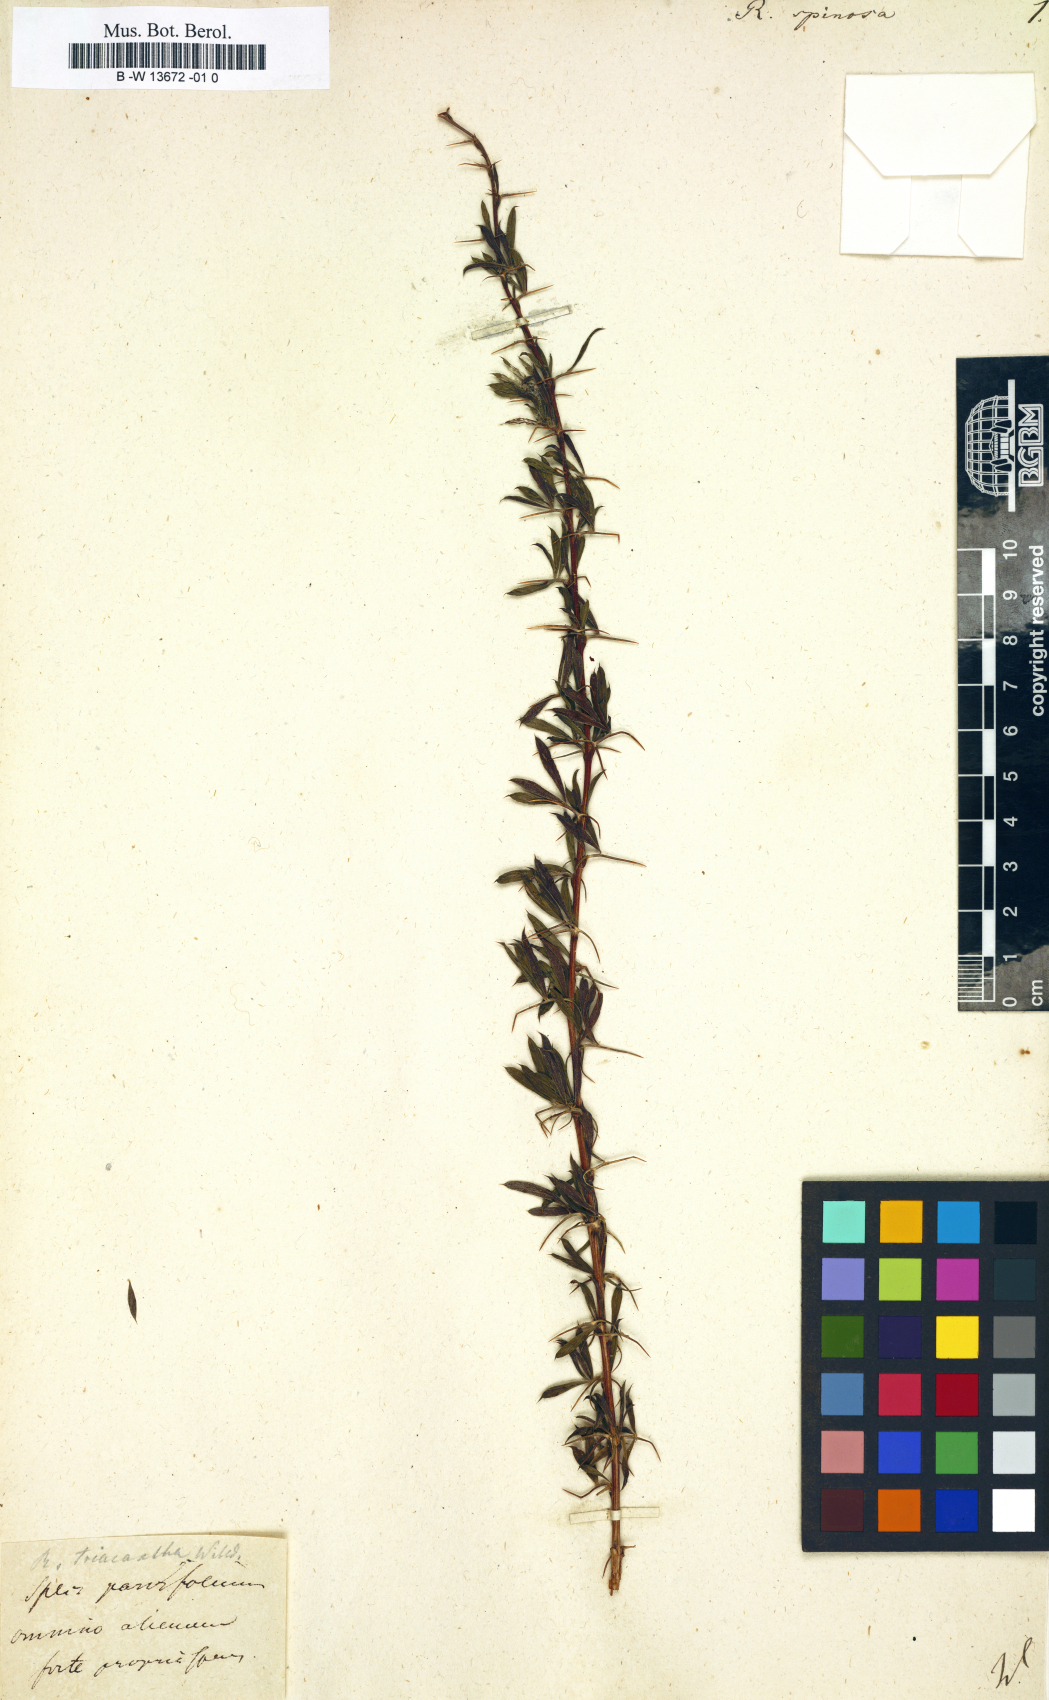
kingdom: Plantae
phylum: Tracheophyta
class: Magnoliopsida
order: Fabales
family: Fabaceae
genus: Caragana
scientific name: Caragana spinosa
